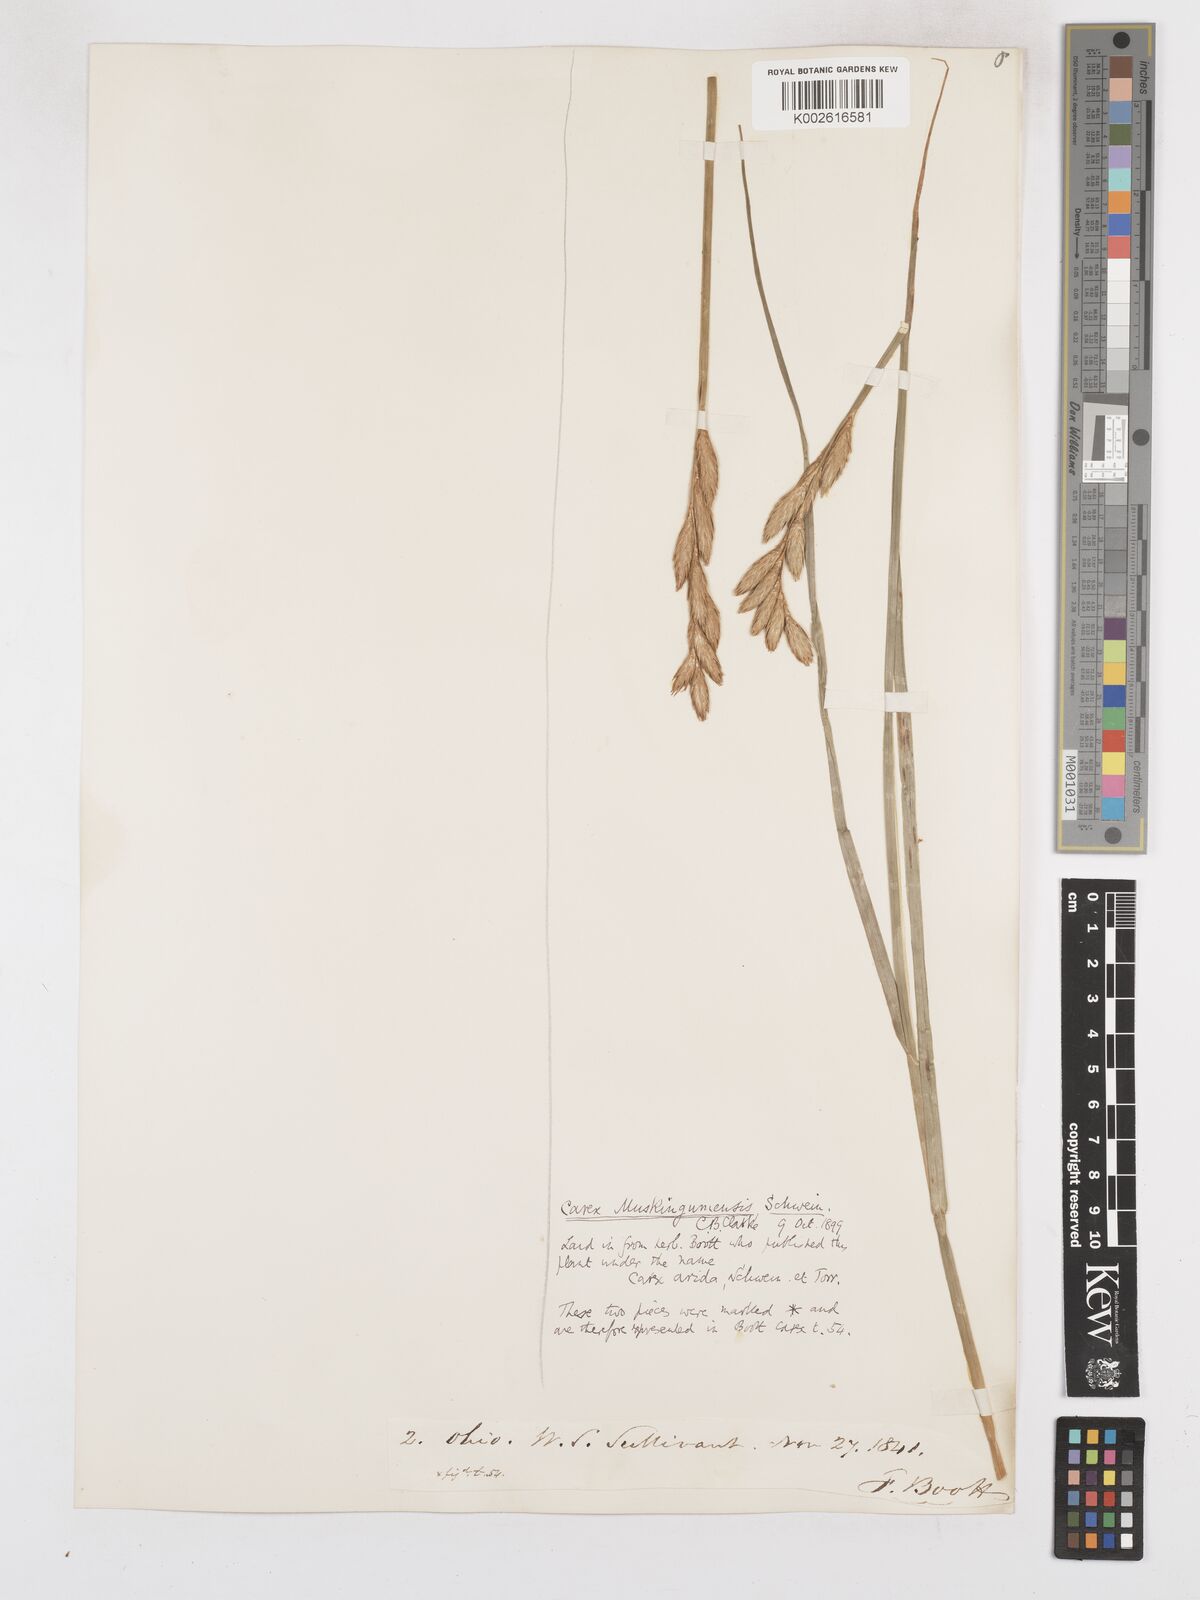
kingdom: Plantae
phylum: Tracheophyta
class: Liliopsida
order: Poales
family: Cyperaceae
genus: Carex
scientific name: Carex muskingumensis
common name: Muskingum sedge
